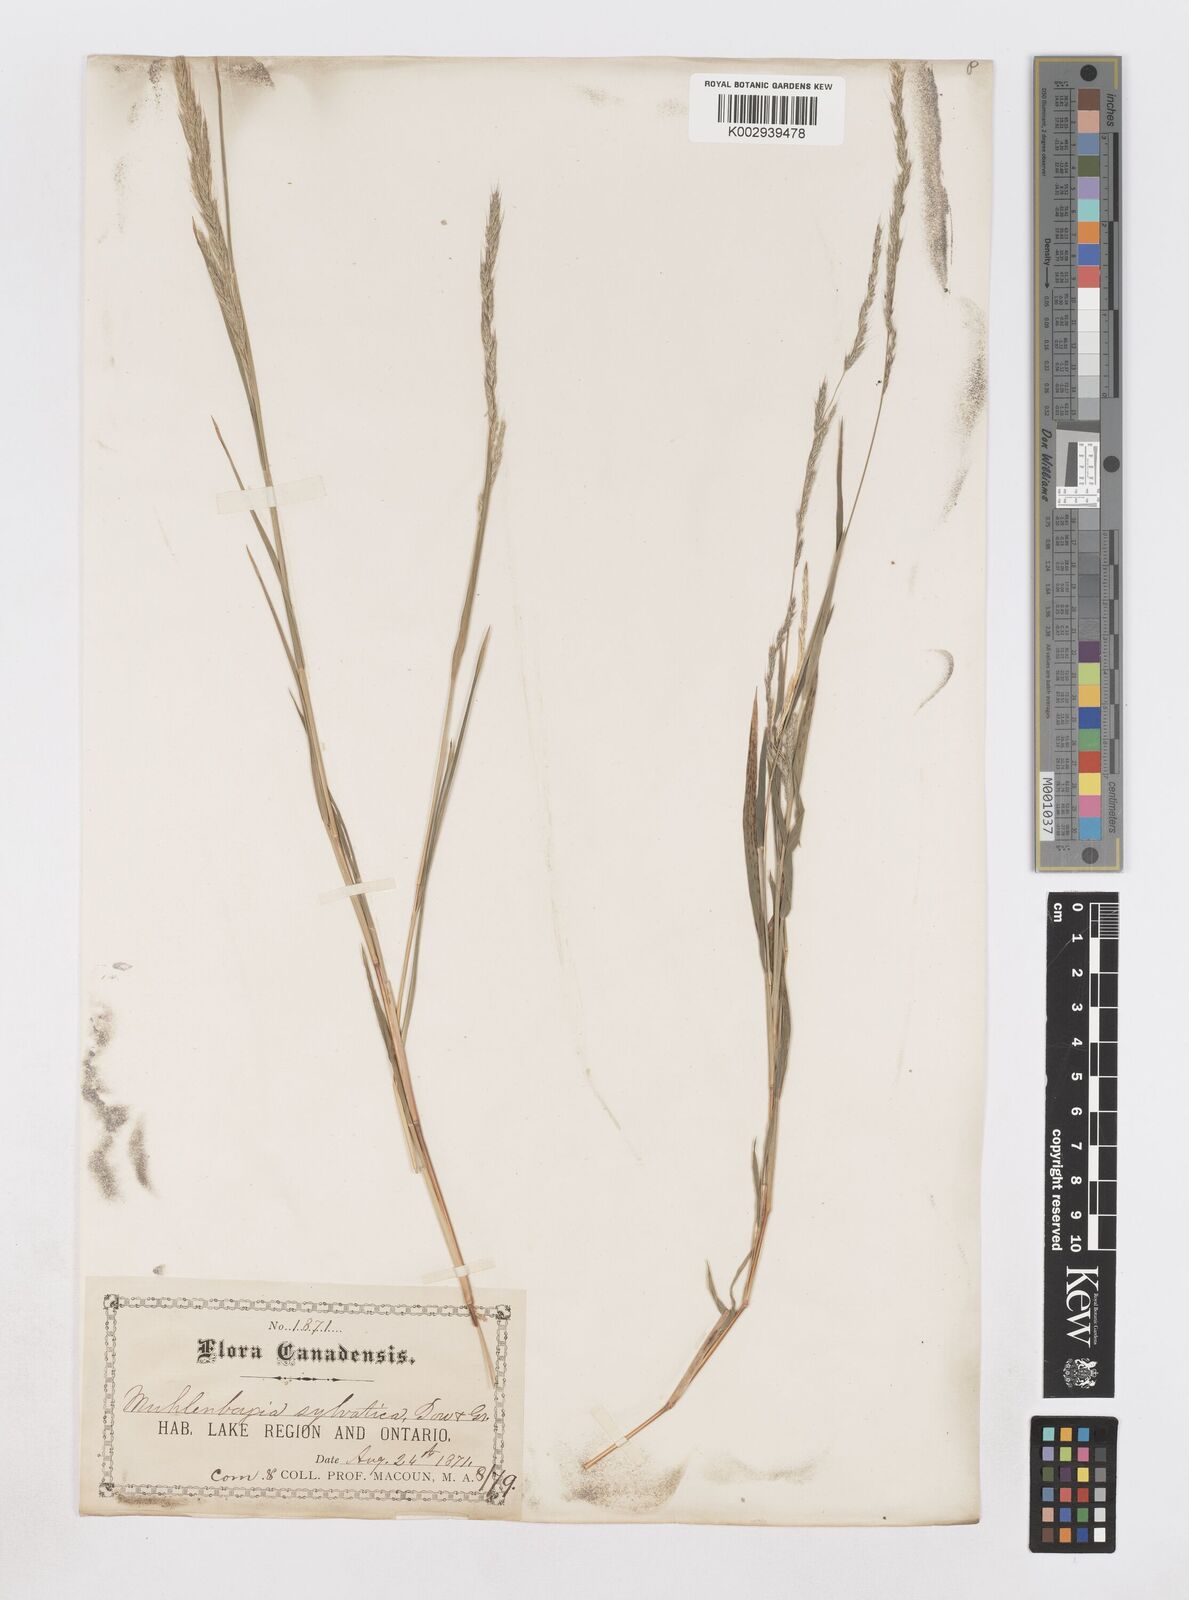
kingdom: Plantae
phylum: Tracheophyta
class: Liliopsida
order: Poales
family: Poaceae
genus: Muhlenbergia
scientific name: Muhlenbergia sylvatica
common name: Woodland muhly
